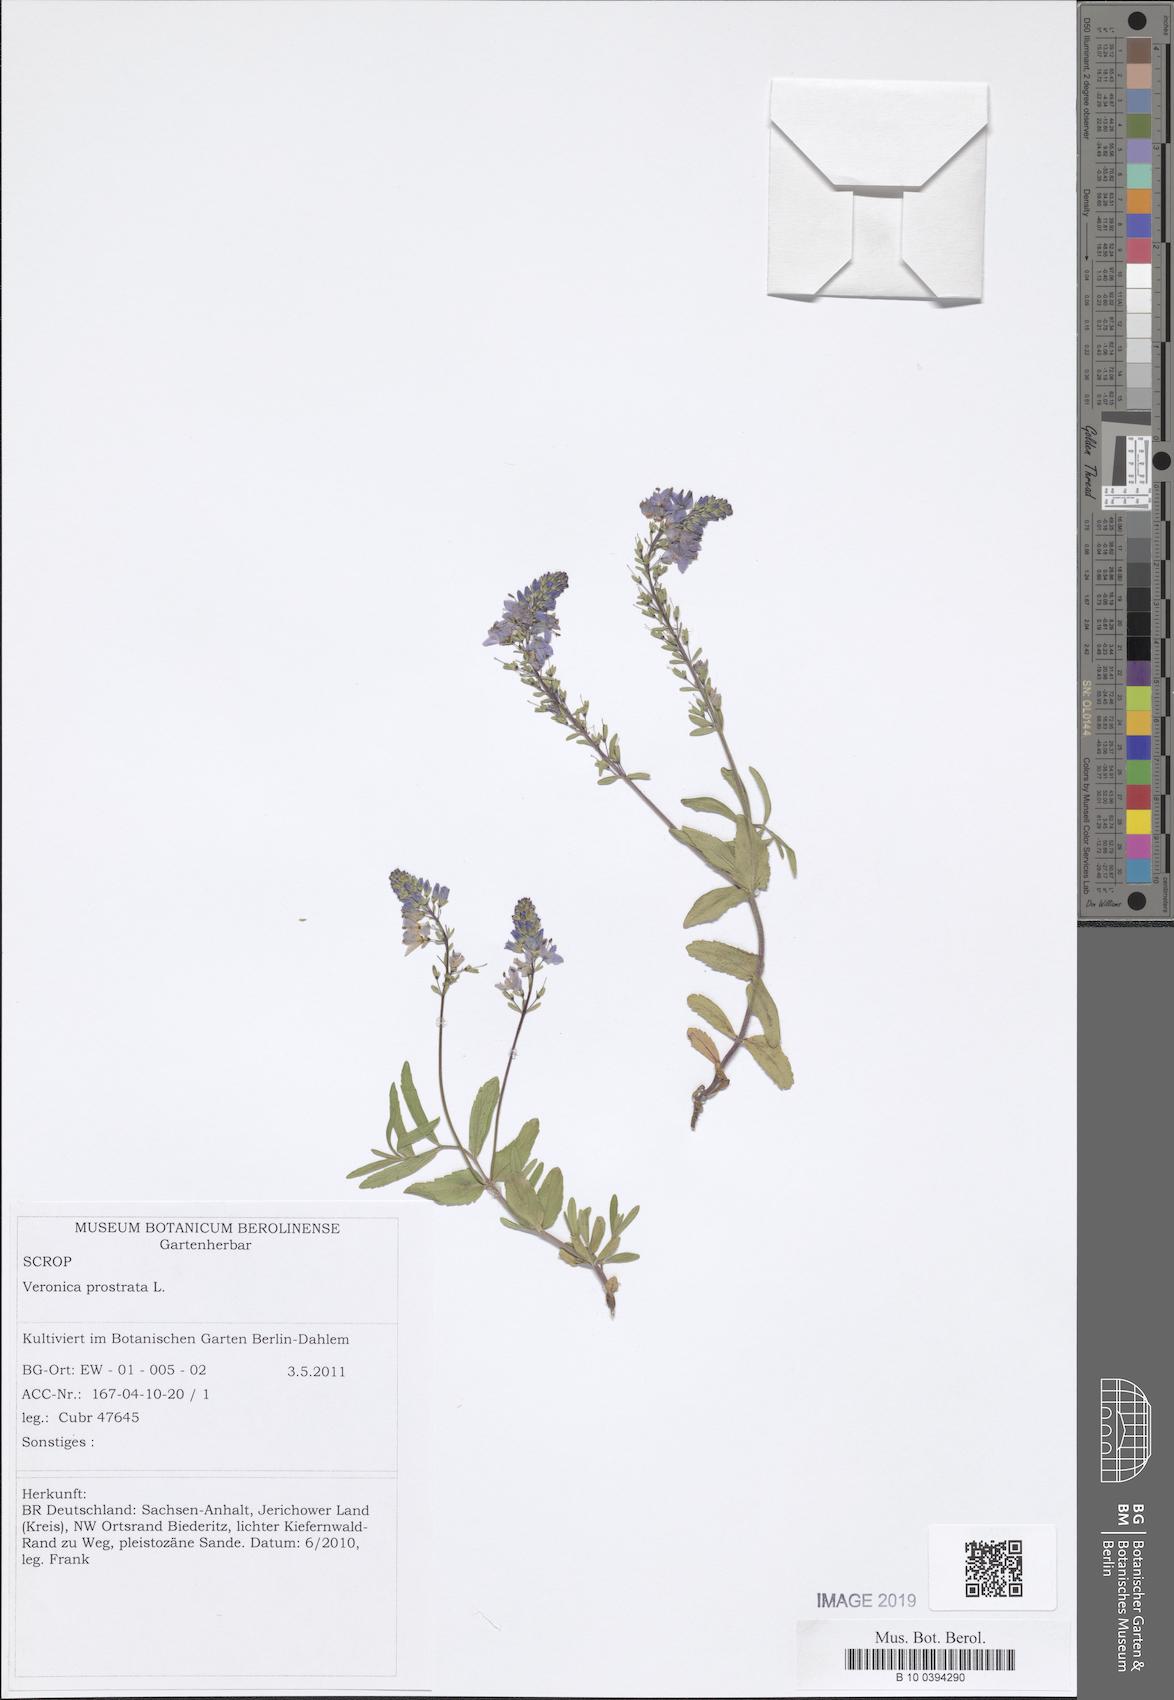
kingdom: Plantae
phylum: Tracheophyta
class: Magnoliopsida
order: Lamiales
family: Plantaginaceae
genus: Veronica
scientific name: Veronica prostrata
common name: Prostrate speedwell
